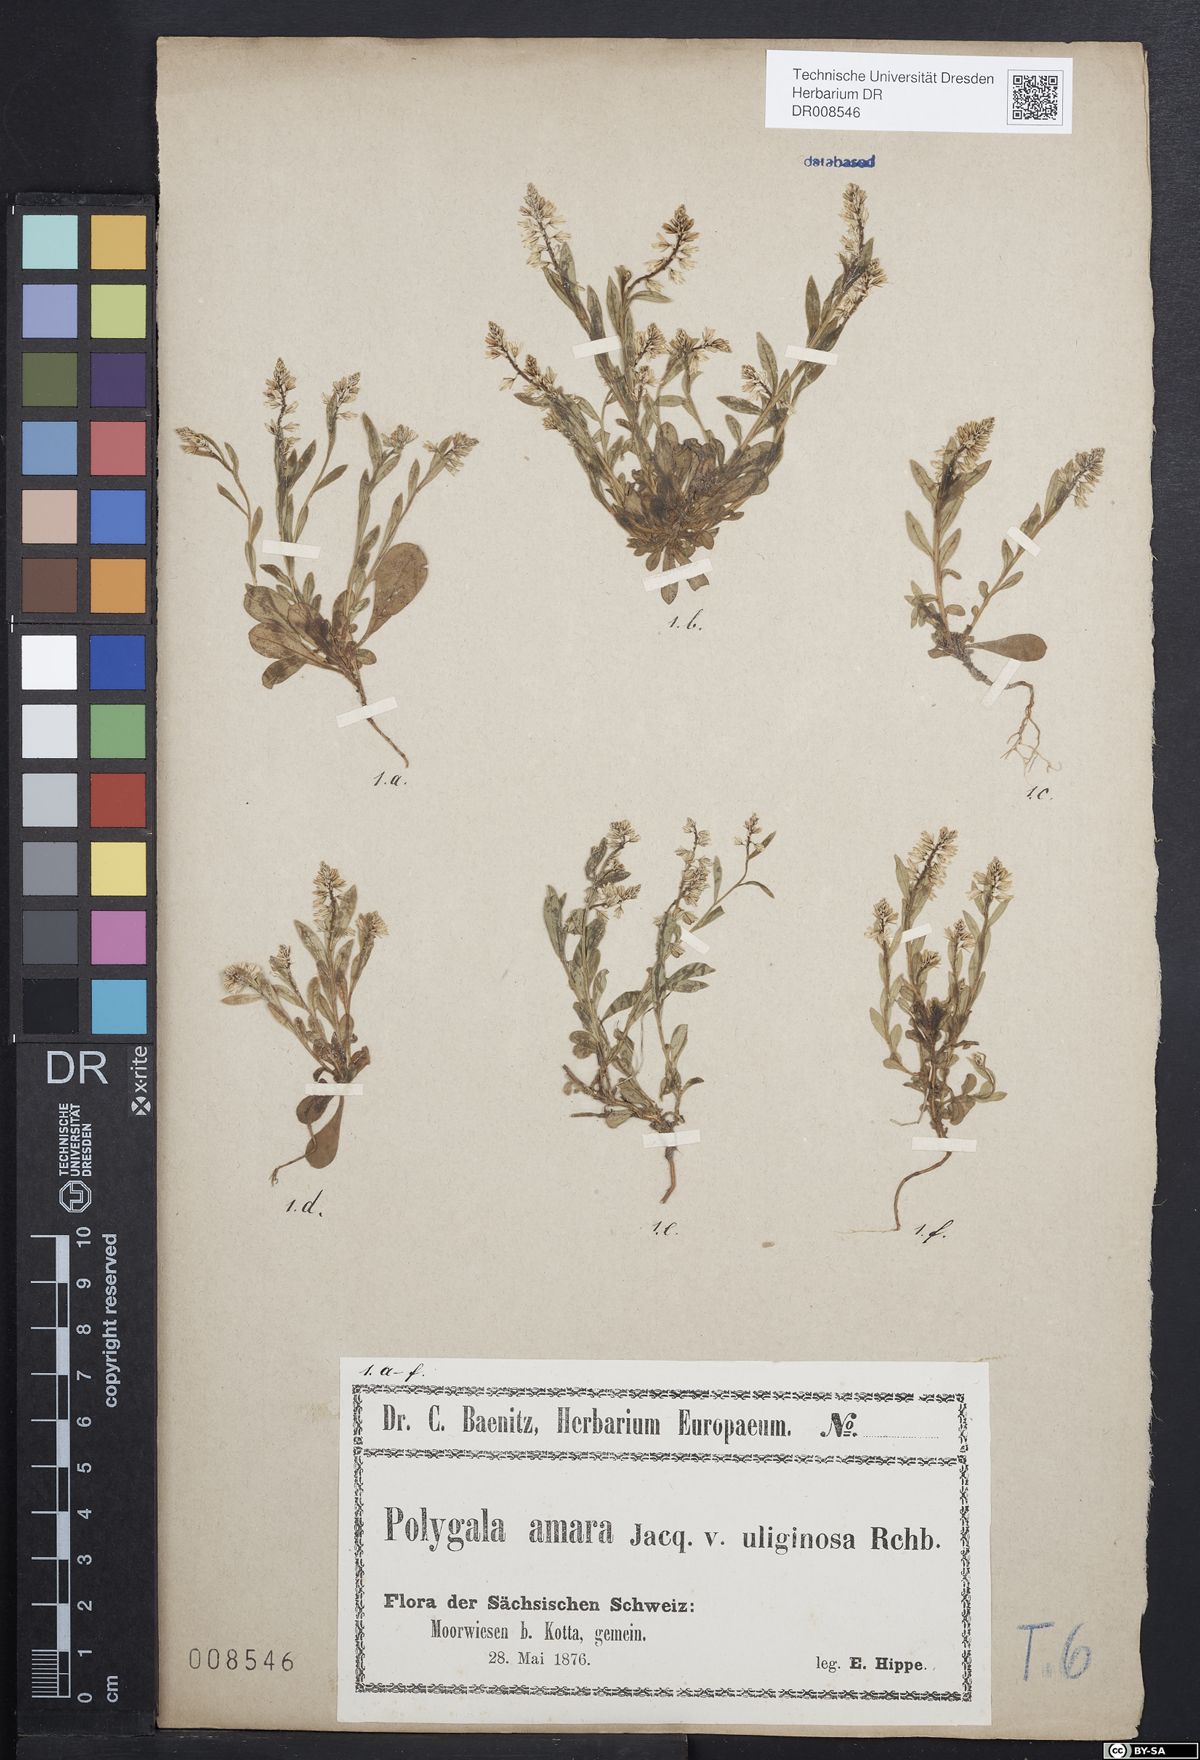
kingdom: Plantae
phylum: Tracheophyta
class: Magnoliopsida
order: Fabales
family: Polygalaceae
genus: Polygala
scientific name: Polygala amarella
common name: Dwarf milkwort
